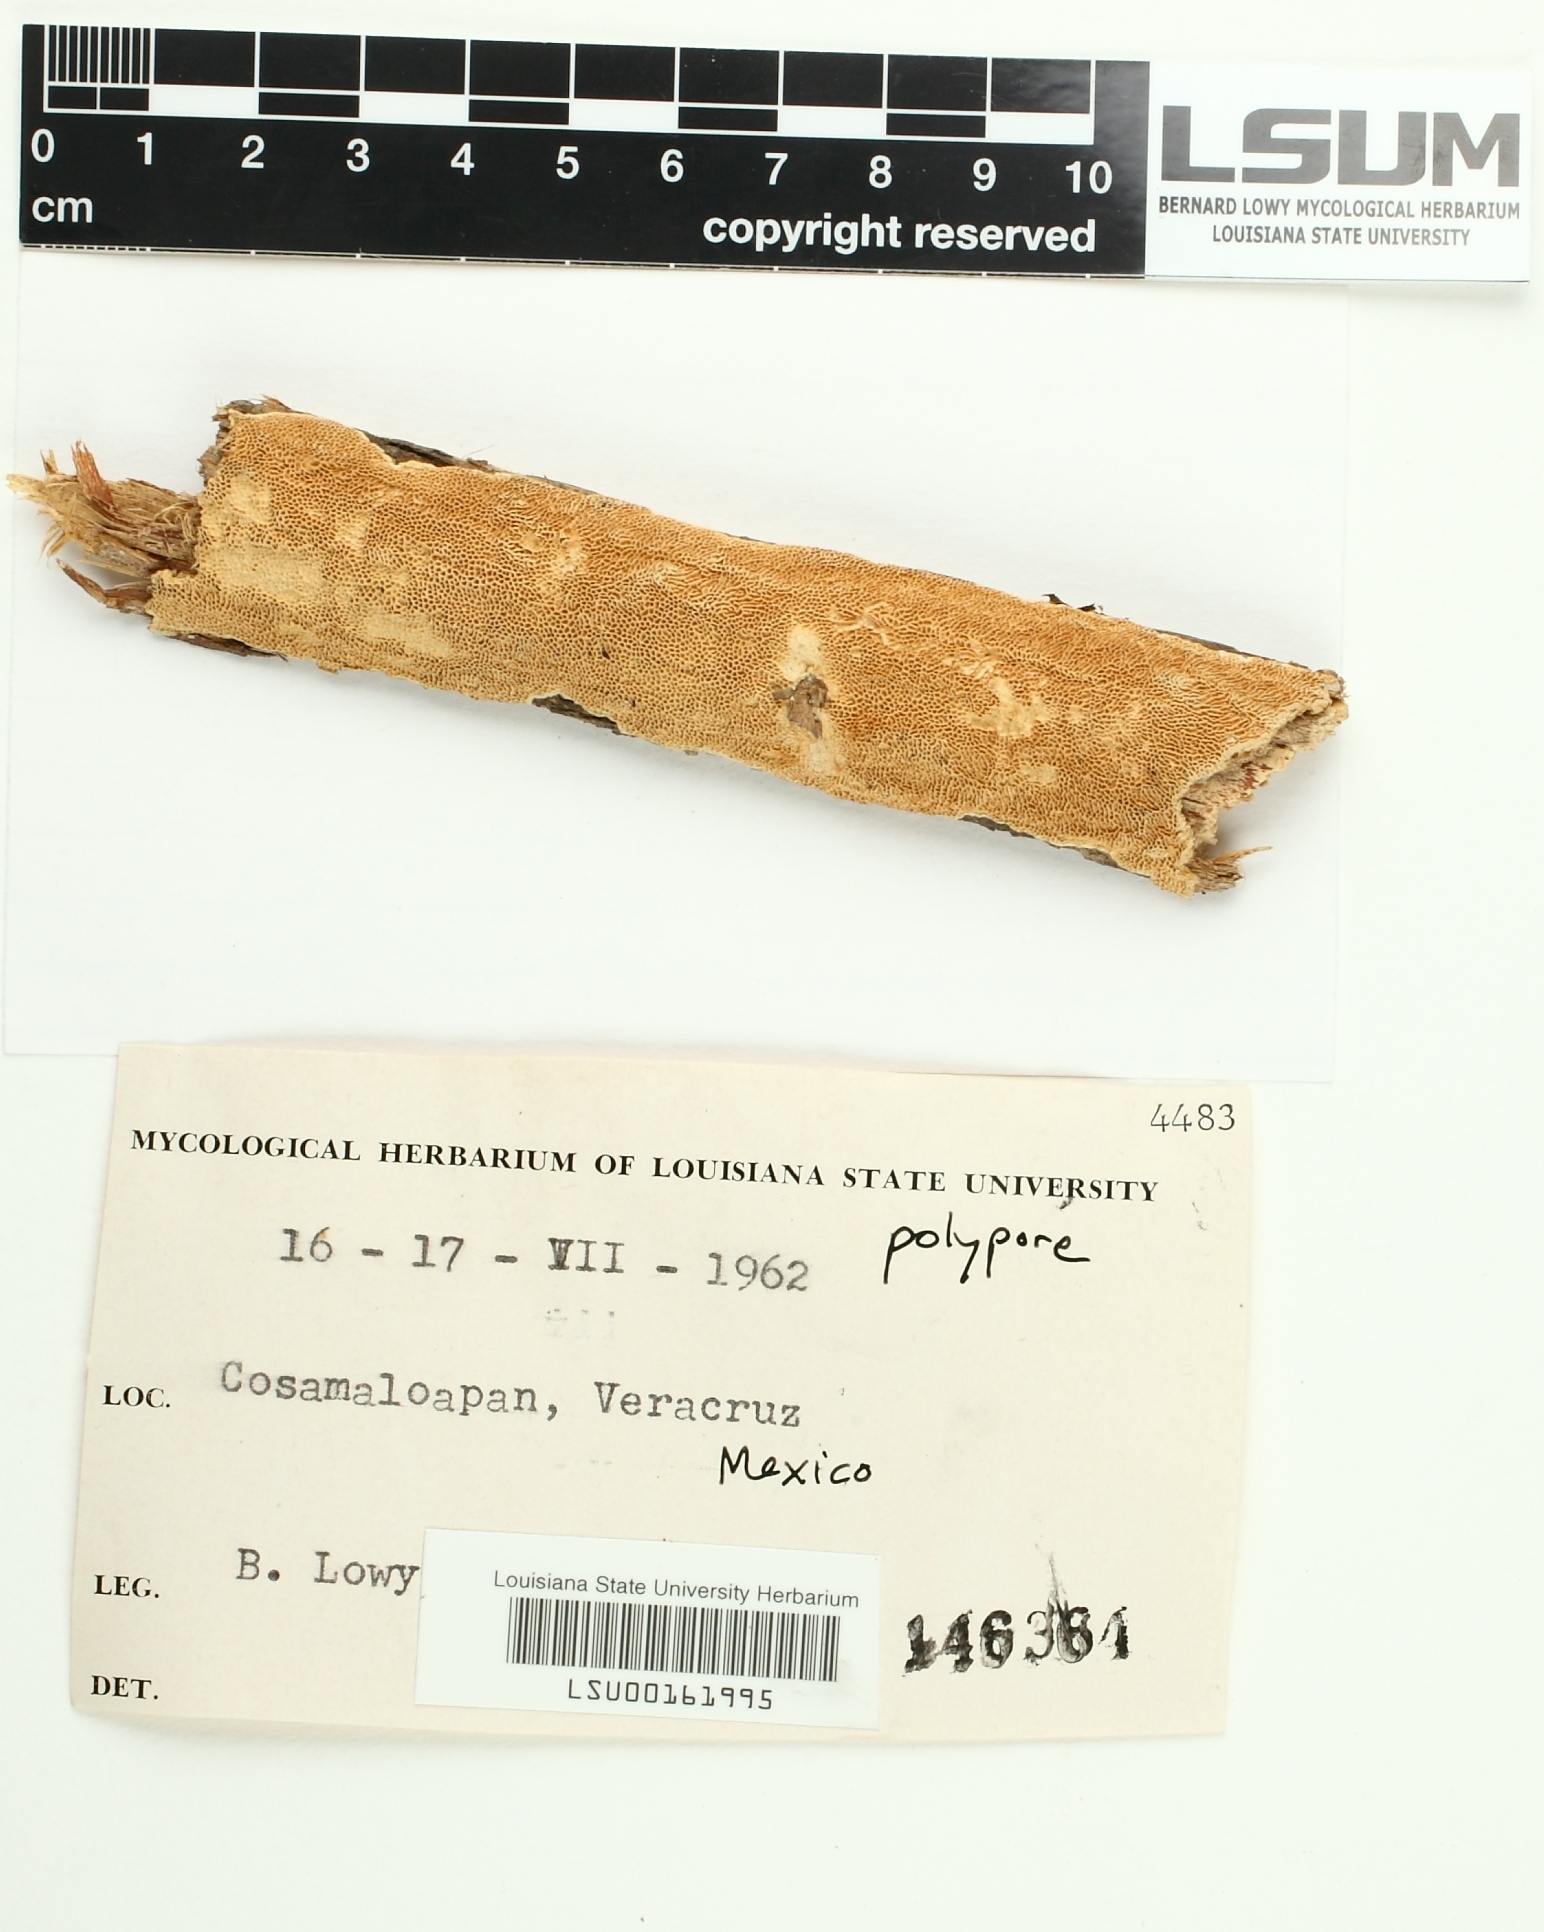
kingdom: Fungi
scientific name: Fungi
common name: Fungi
